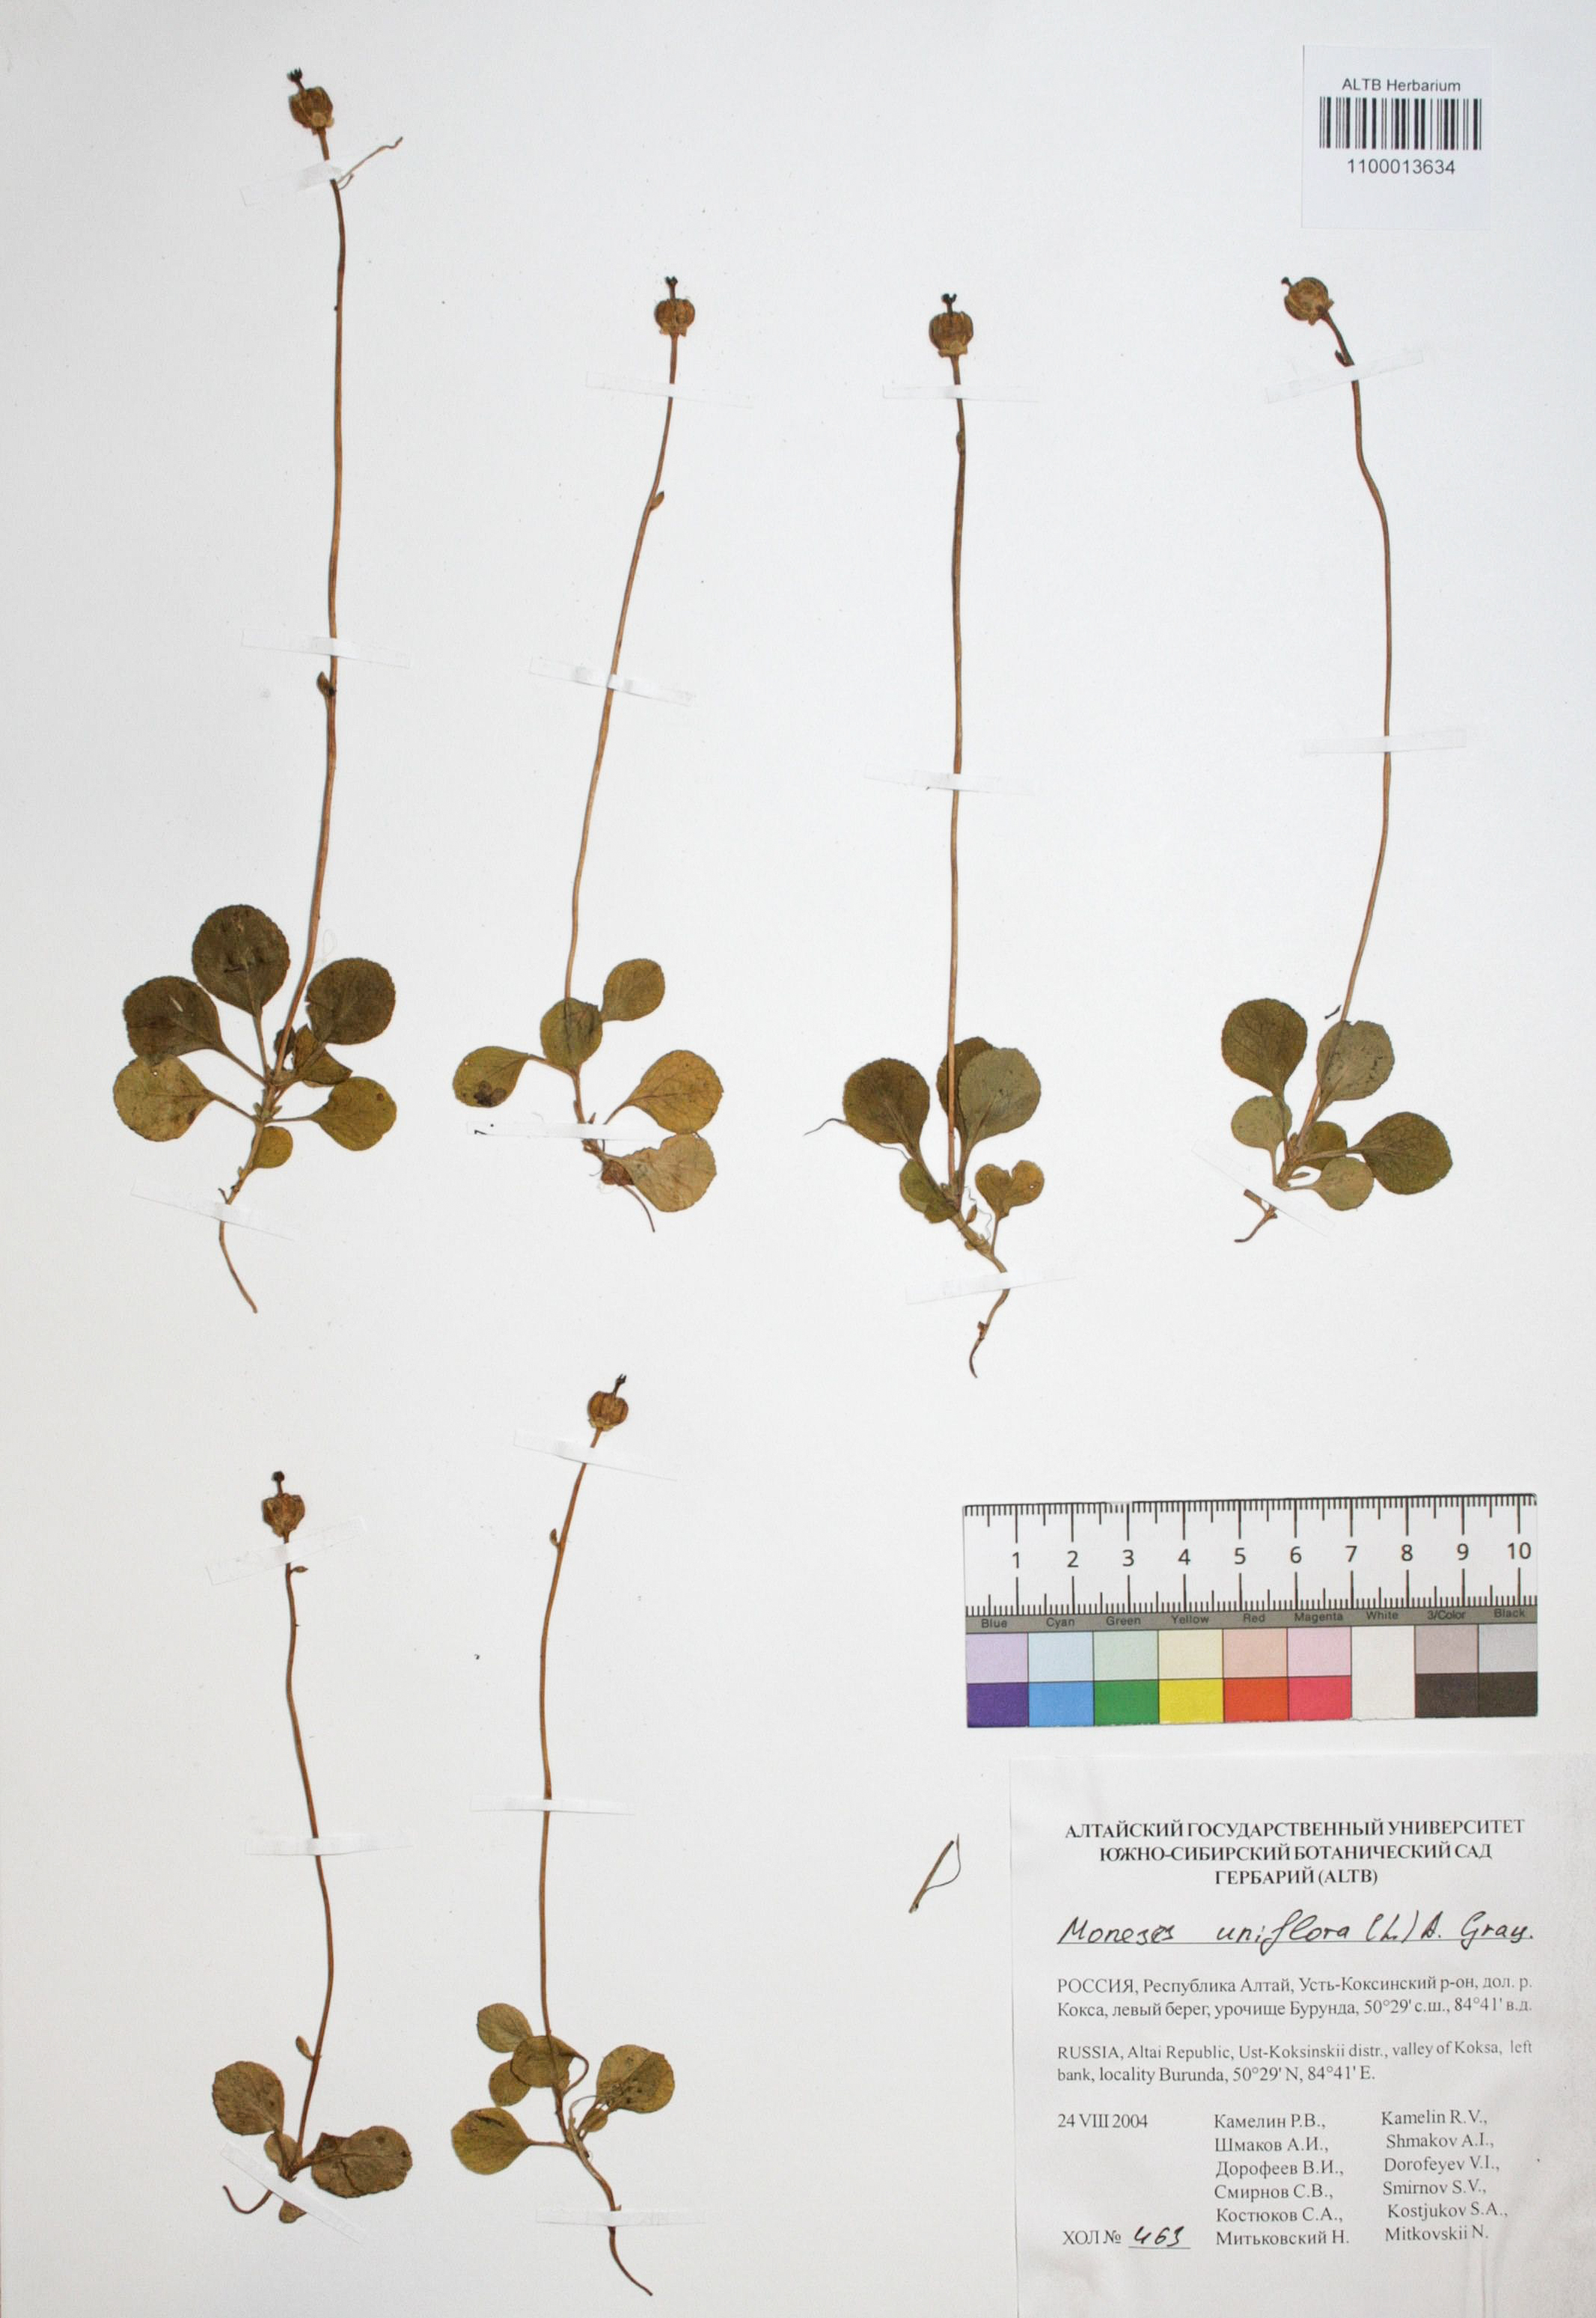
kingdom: Plantae
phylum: Tracheophyta
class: Magnoliopsida
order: Ericales
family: Ericaceae
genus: Moneses
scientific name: Moneses uniflora
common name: One-flowered wintergreen
